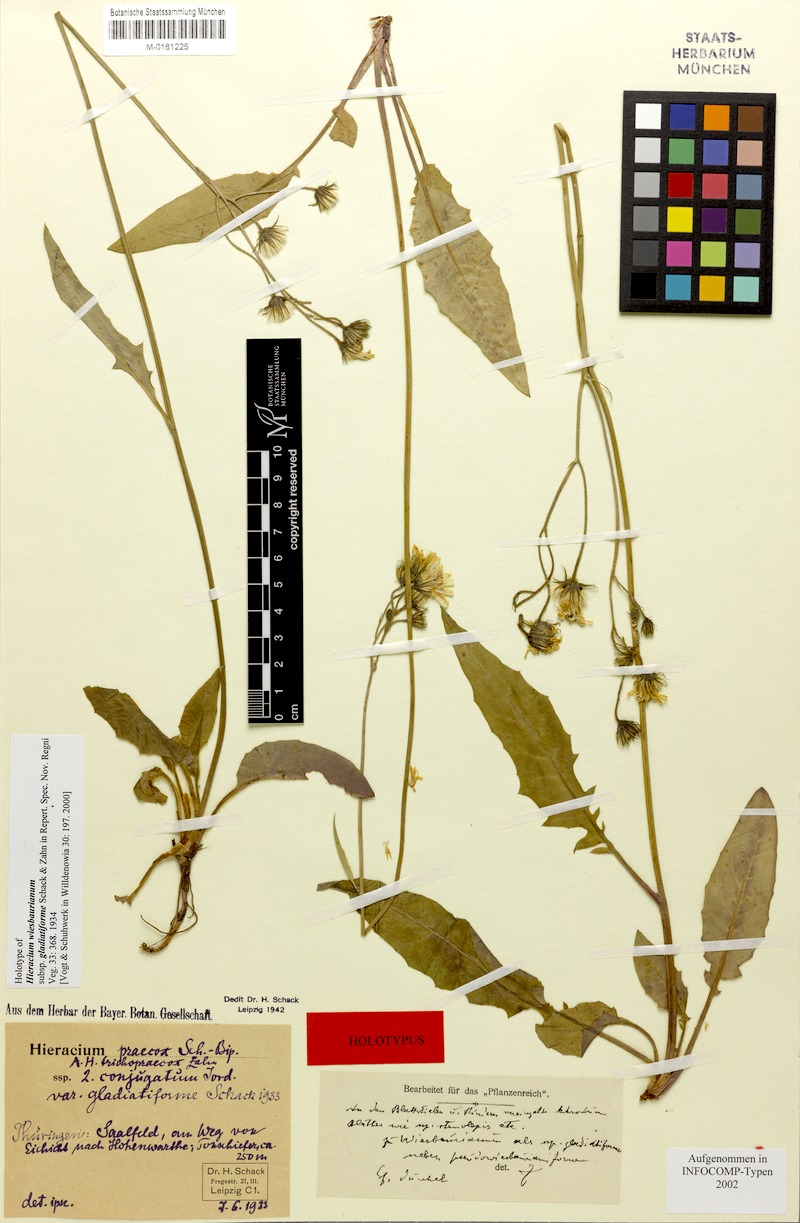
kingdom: Plantae
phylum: Tracheophyta
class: Magnoliopsida
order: Asterales
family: Asteraceae
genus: Hieracium
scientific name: Hieracium hypochoeroides
